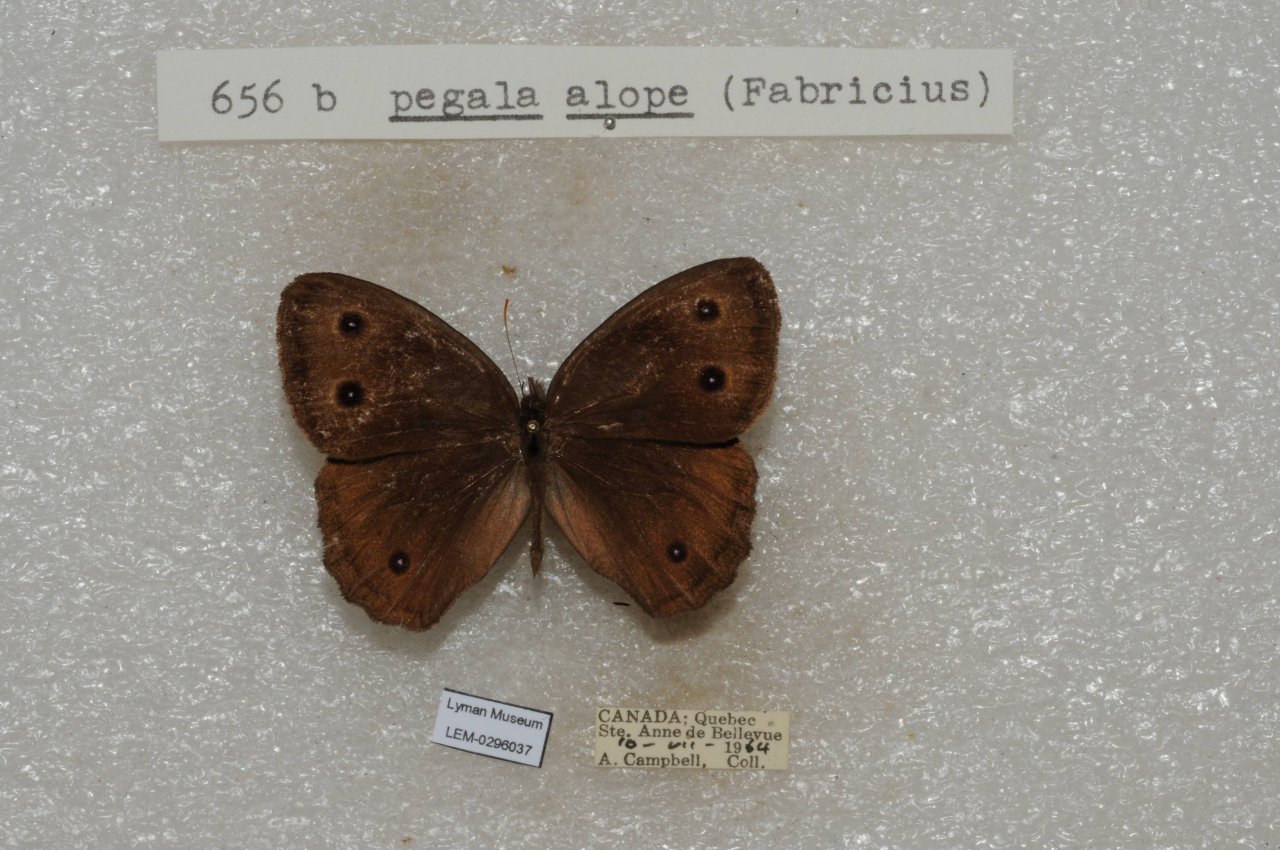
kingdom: Animalia
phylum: Arthropoda
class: Insecta
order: Lepidoptera
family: Nymphalidae
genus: Cercyonis
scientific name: Cercyonis pegala
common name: Common Wood-Nymph
